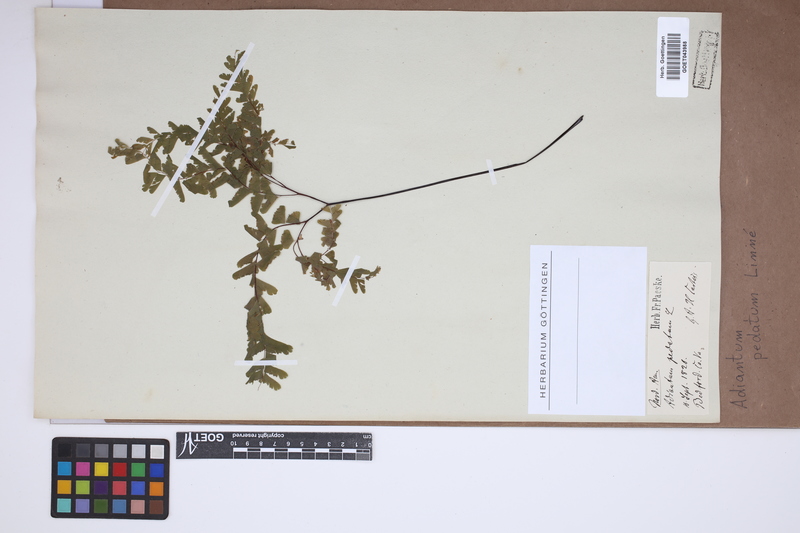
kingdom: Plantae
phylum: Tracheophyta
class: Polypodiopsida
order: Polypodiales
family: Pteridaceae
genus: Adiantum
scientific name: Adiantum pedatum
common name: Five-finger fern
